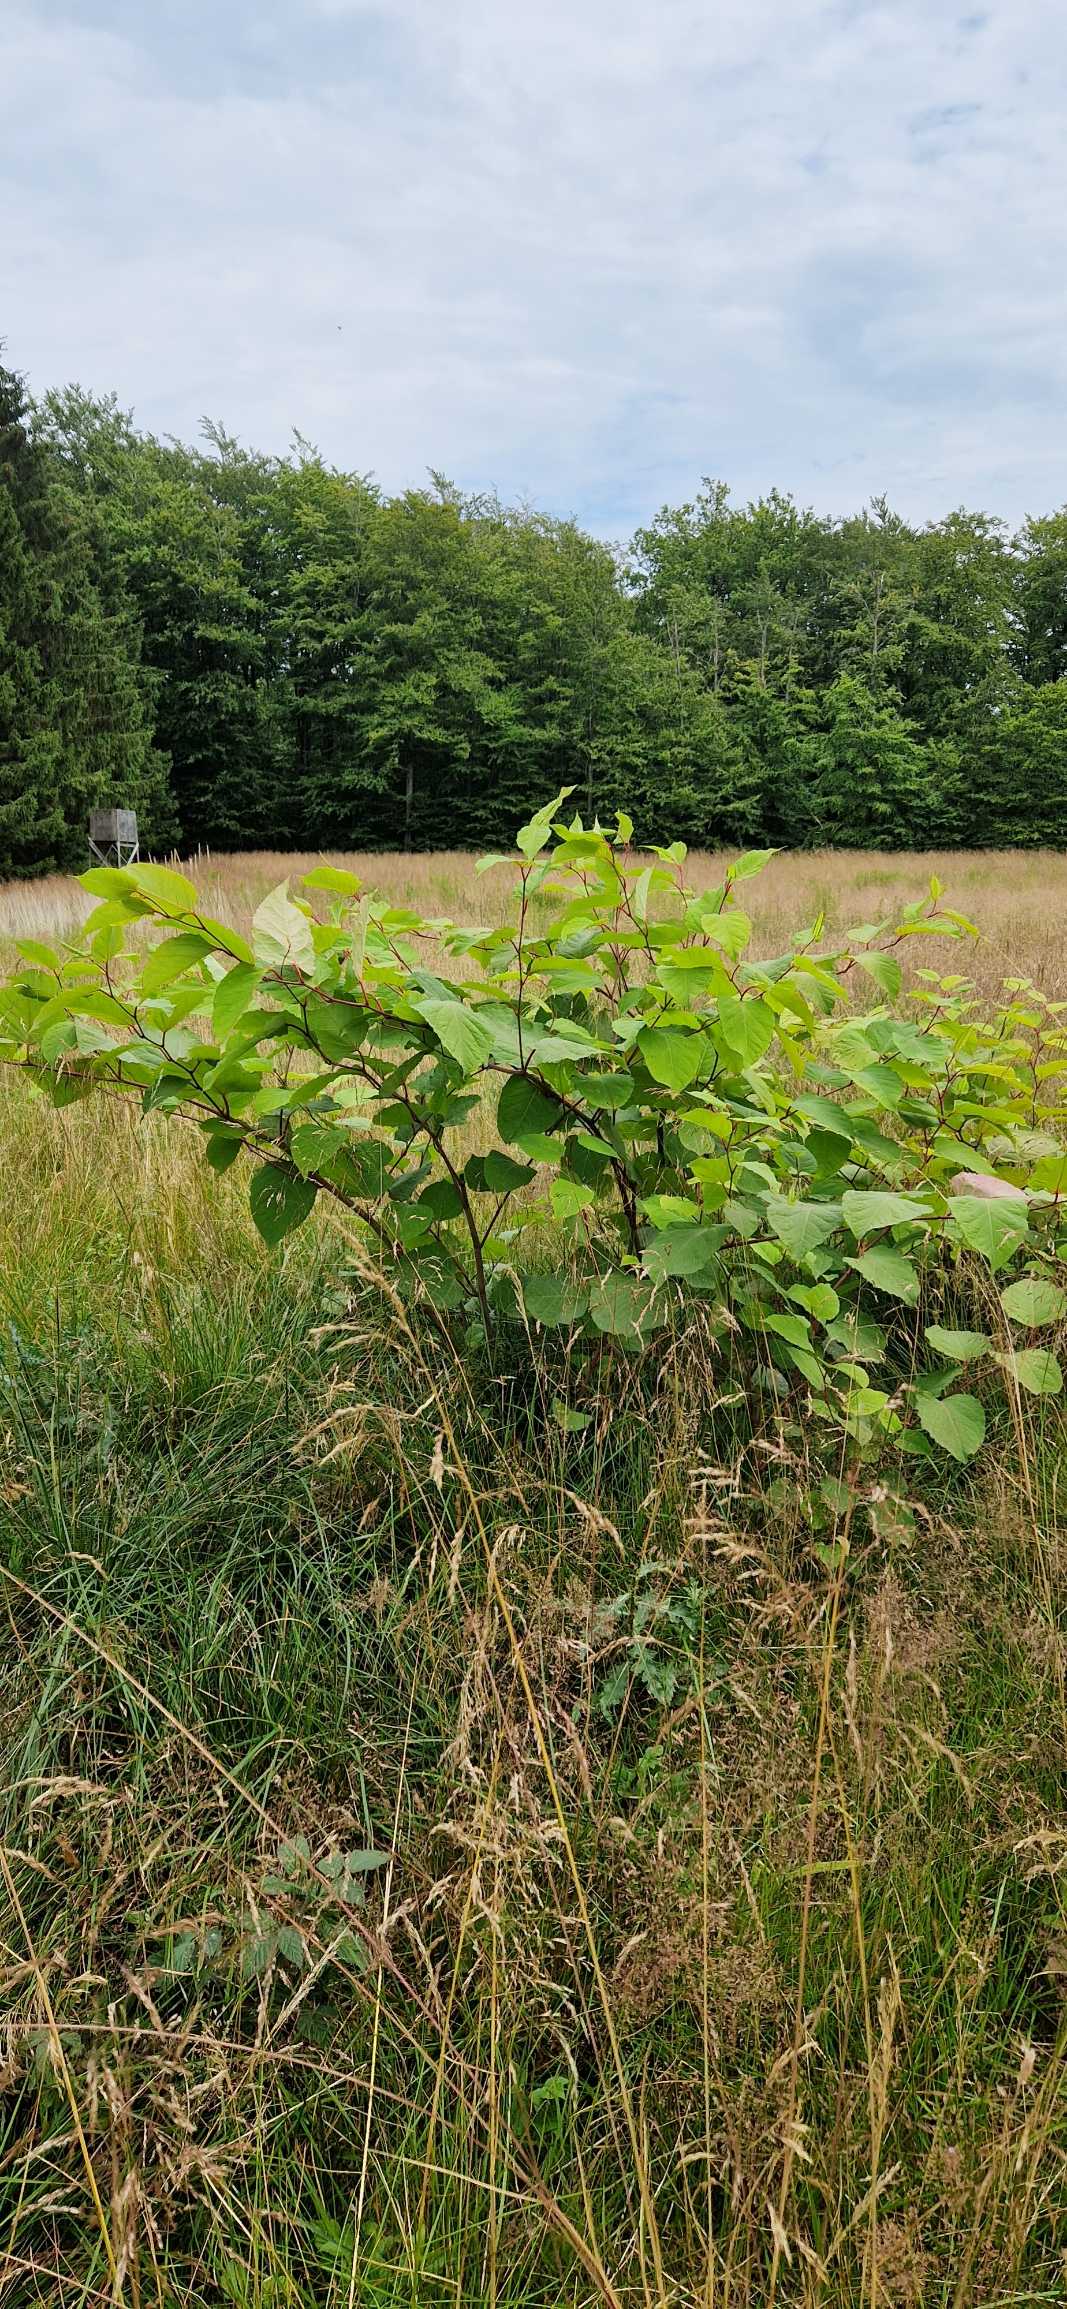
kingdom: Plantae
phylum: Tracheophyta
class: Magnoliopsida
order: Caryophyllales
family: Polygonaceae
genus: Reynoutria
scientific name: Reynoutria japonica
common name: Japan-pileurt
